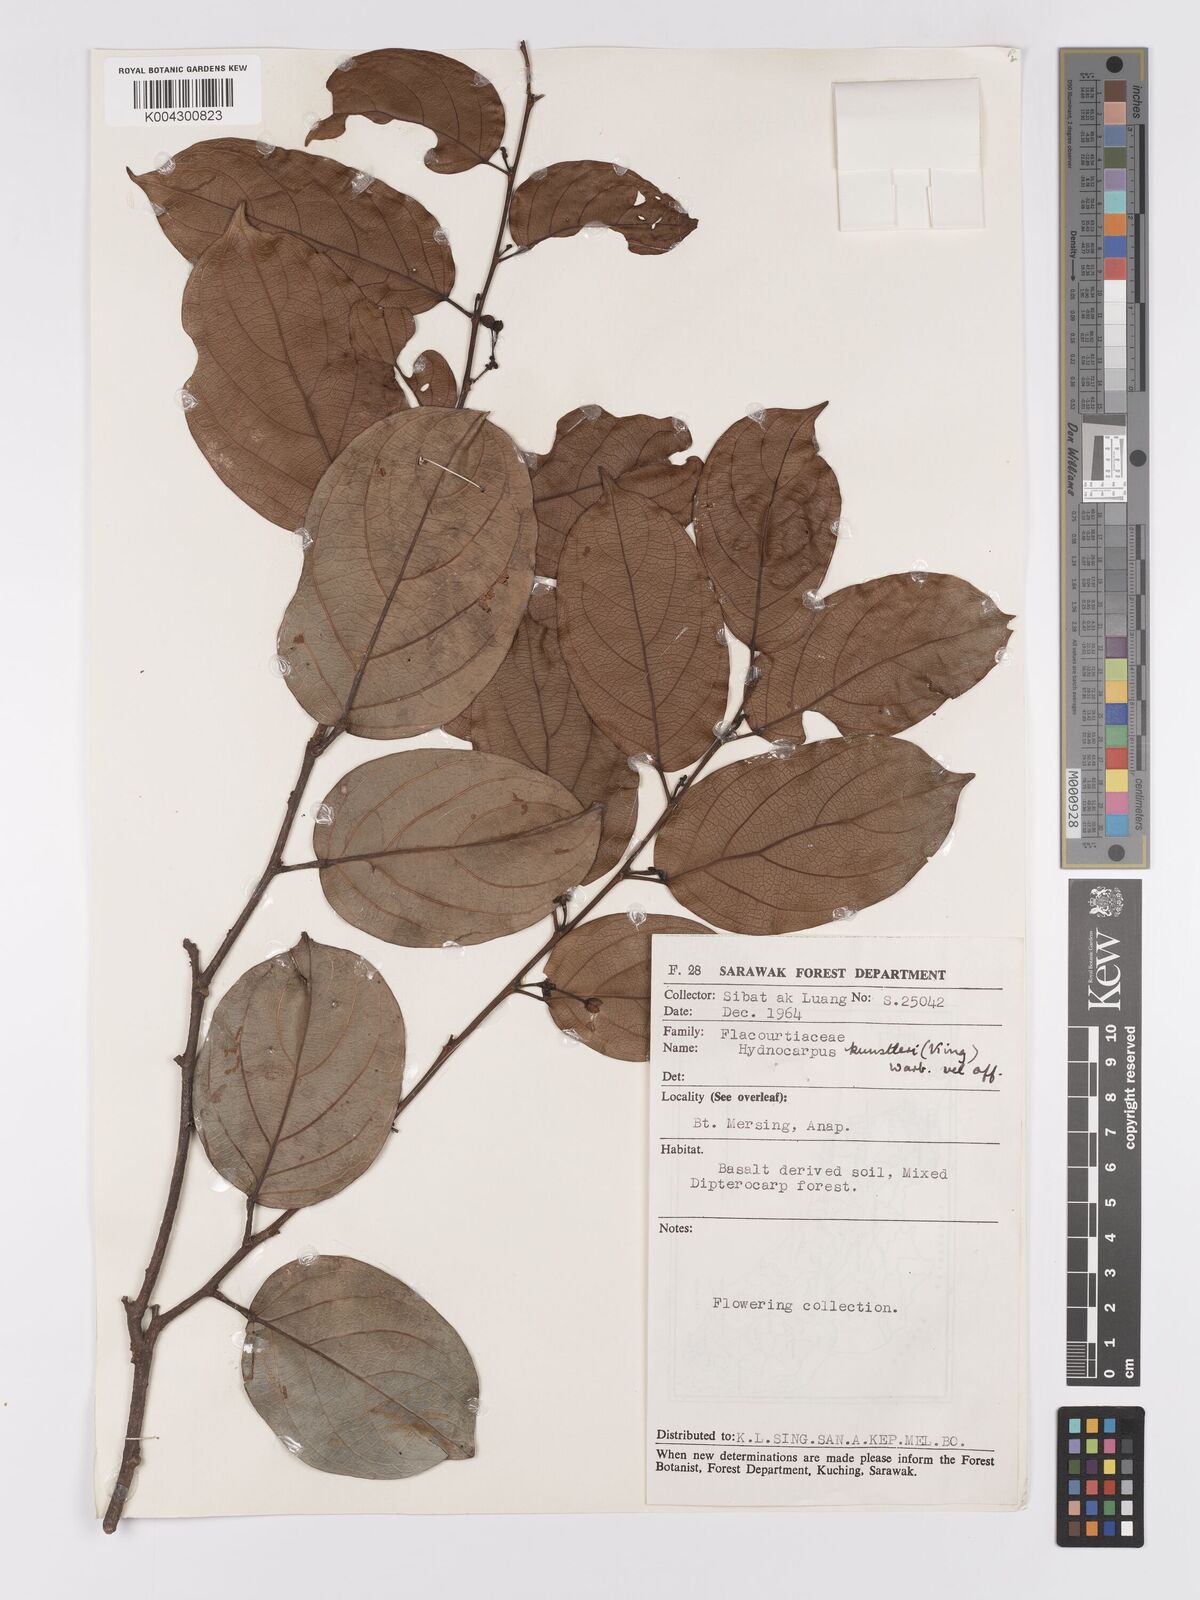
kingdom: Plantae
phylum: Tracheophyta
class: Magnoliopsida
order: Malpighiales
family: Achariaceae
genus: Hydnocarpus
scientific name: Hydnocarpus kunstleri
